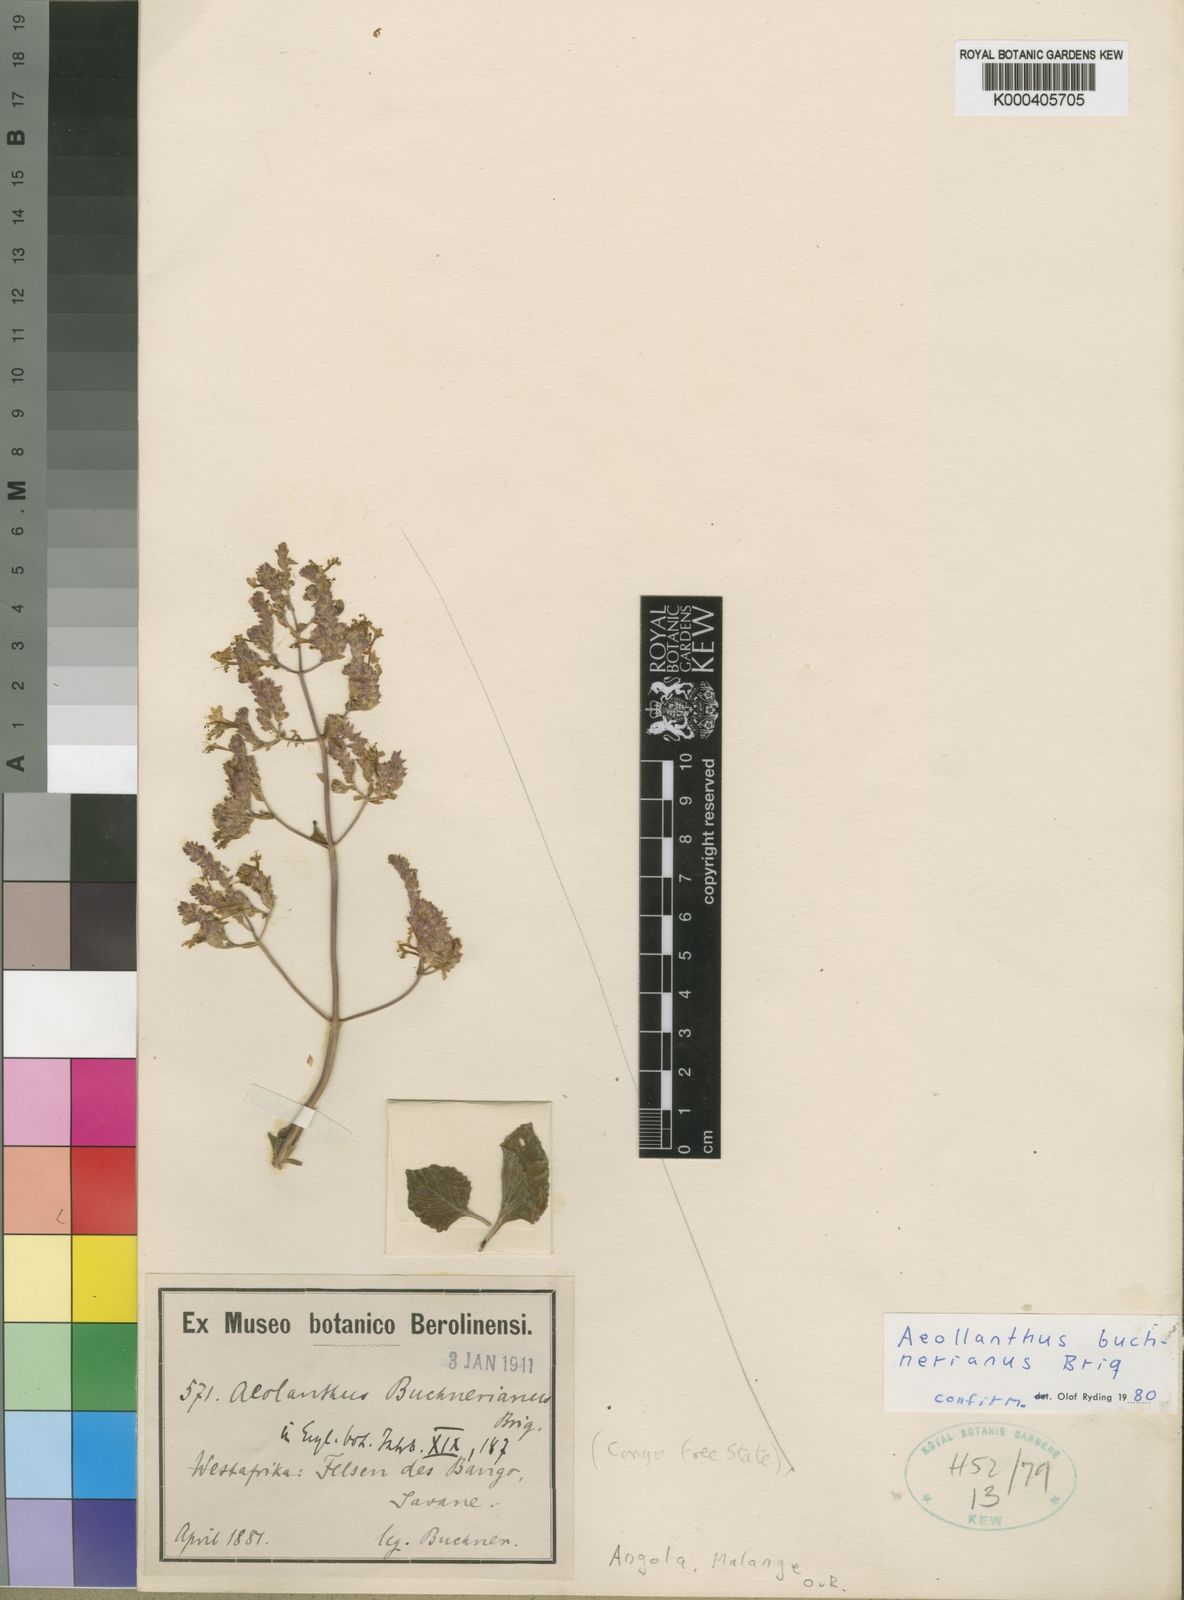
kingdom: Plantae
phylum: Tracheophyta
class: Magnoliopsida
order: Lamiales
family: Lamiaceae
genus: Aeollanthus
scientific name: Aeollanthus buchnerianus
